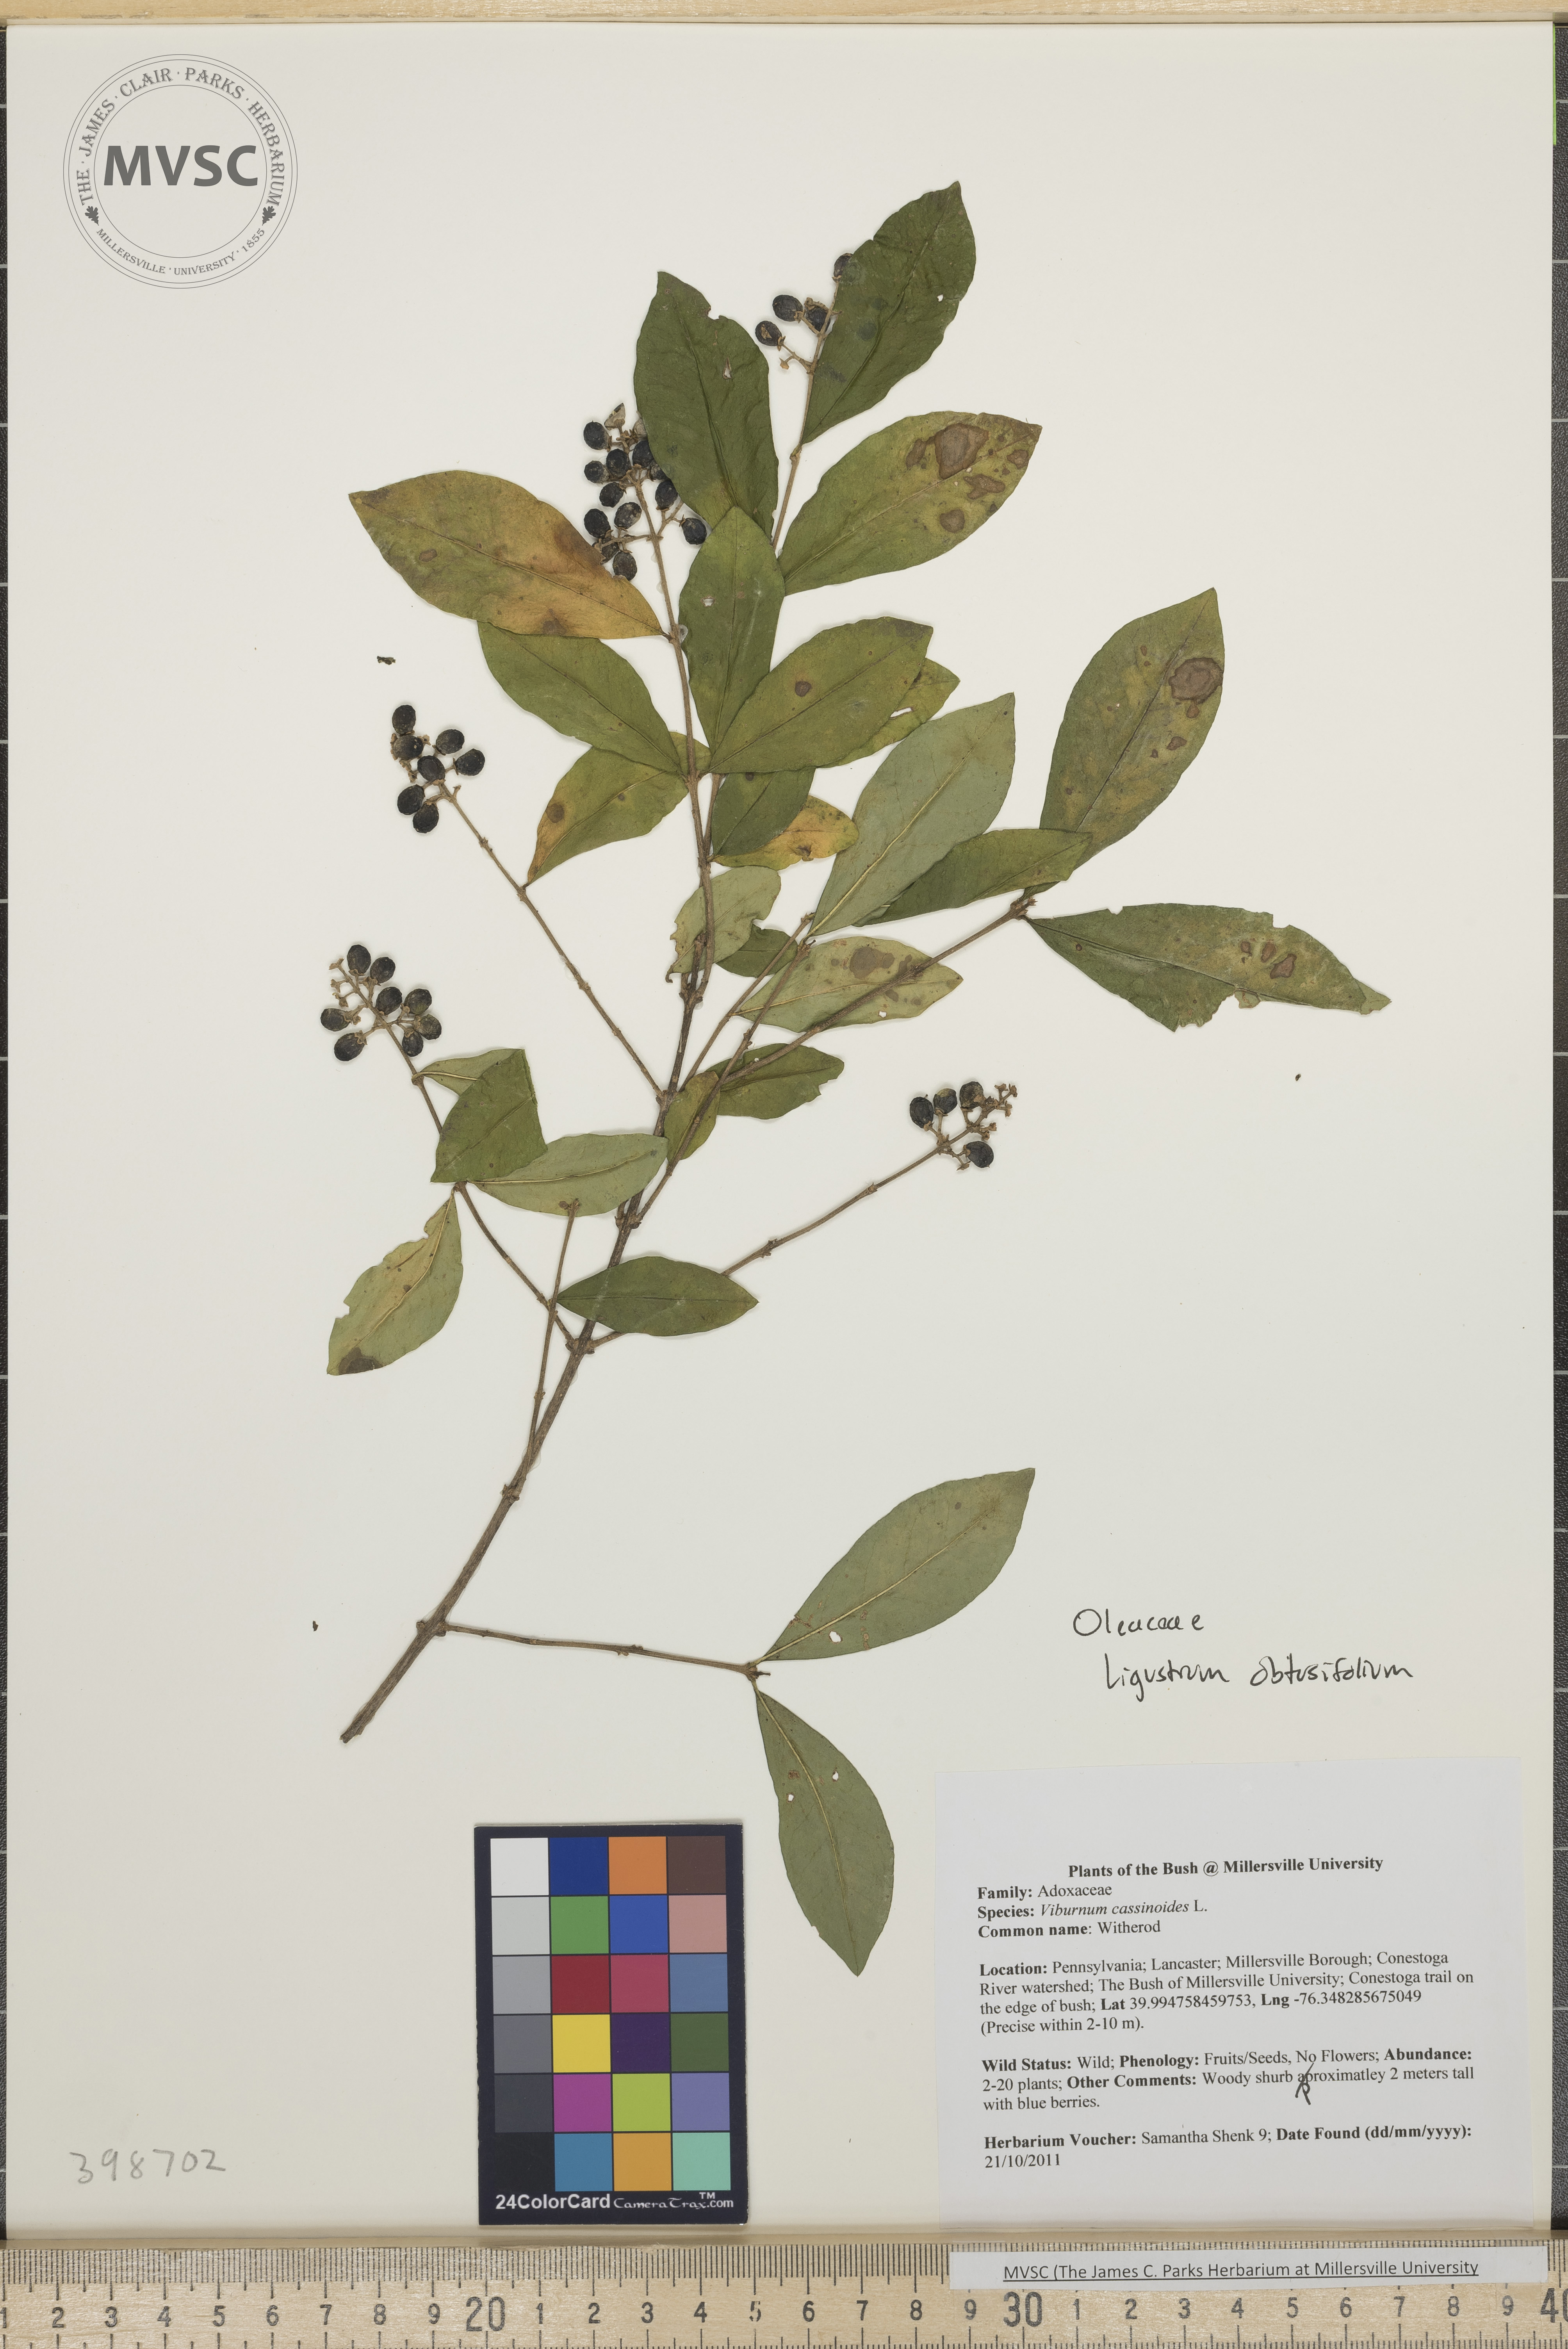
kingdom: Plantae
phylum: Tracheophyta
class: Magnoliopsida
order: Lamiales
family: Oleaceae
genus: Ligustrum
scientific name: Ligustrum obtusifolium
